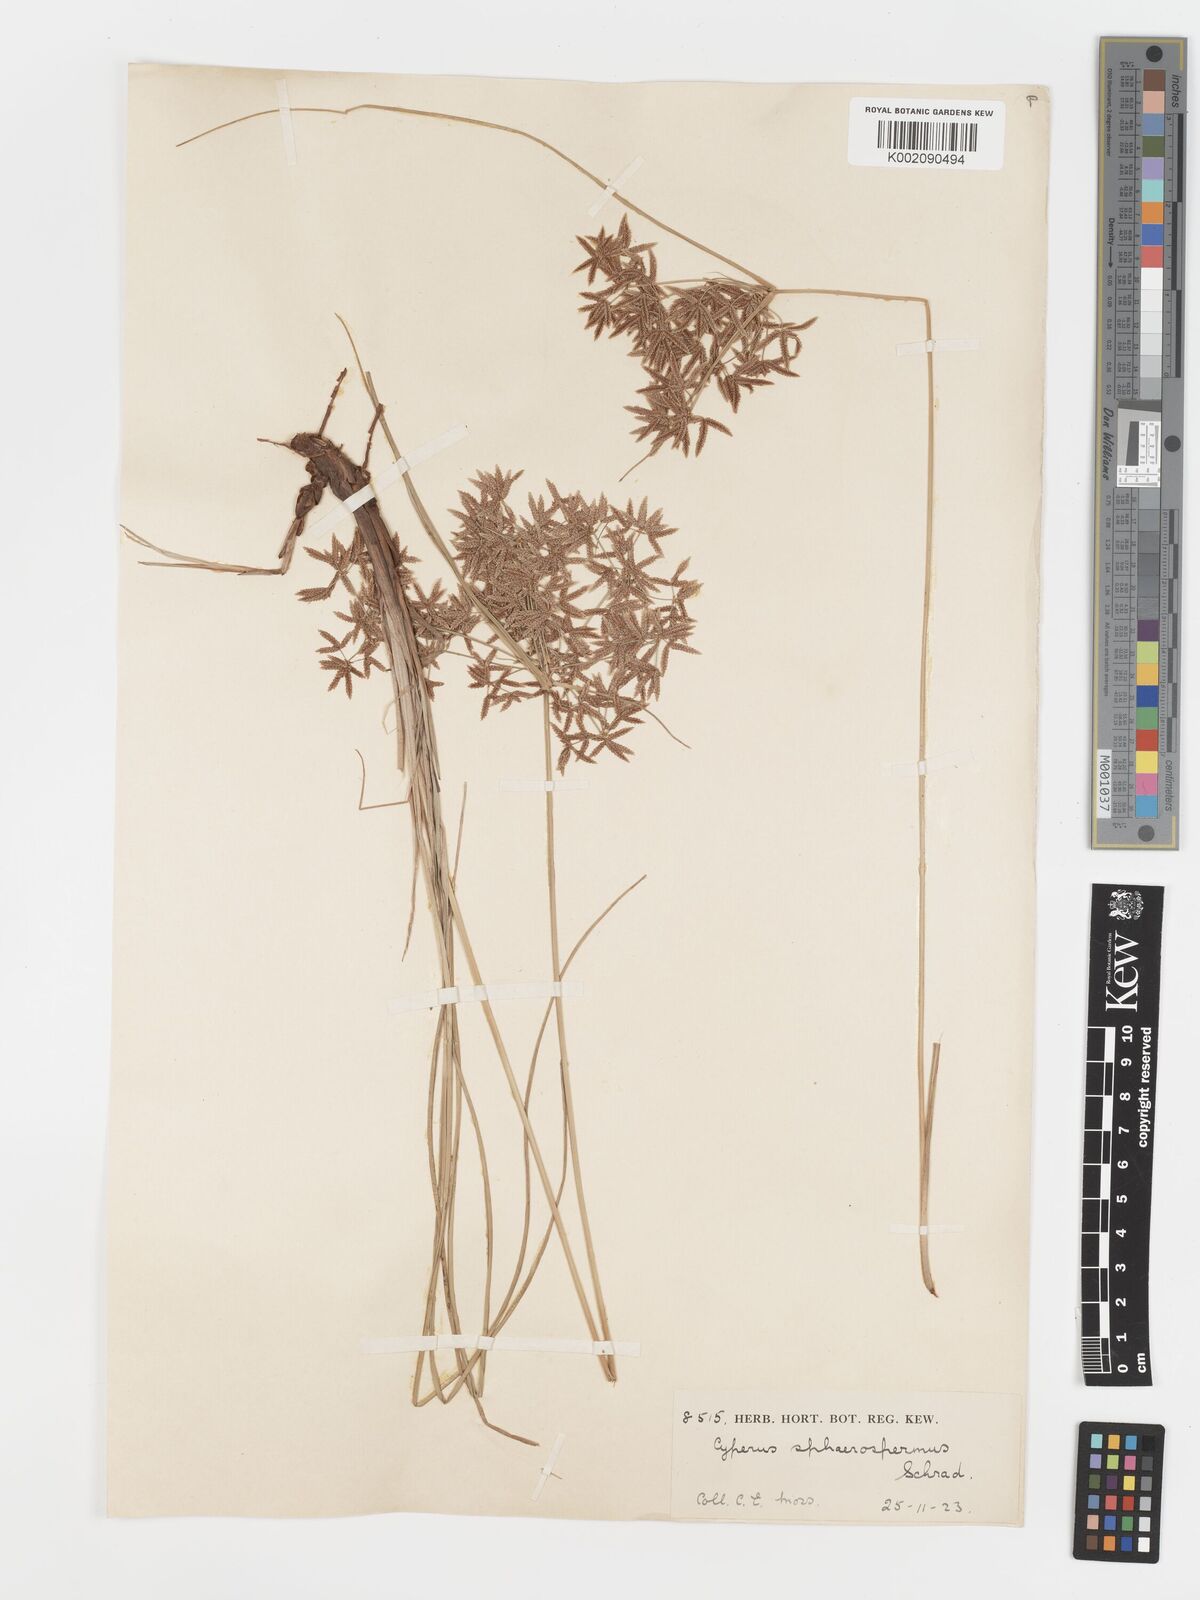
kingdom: Plantae
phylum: Tracheophyta
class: Liliopsida
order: Poales
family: Cyperaceae
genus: Cyperus
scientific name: Cyperus sphaerospermus
